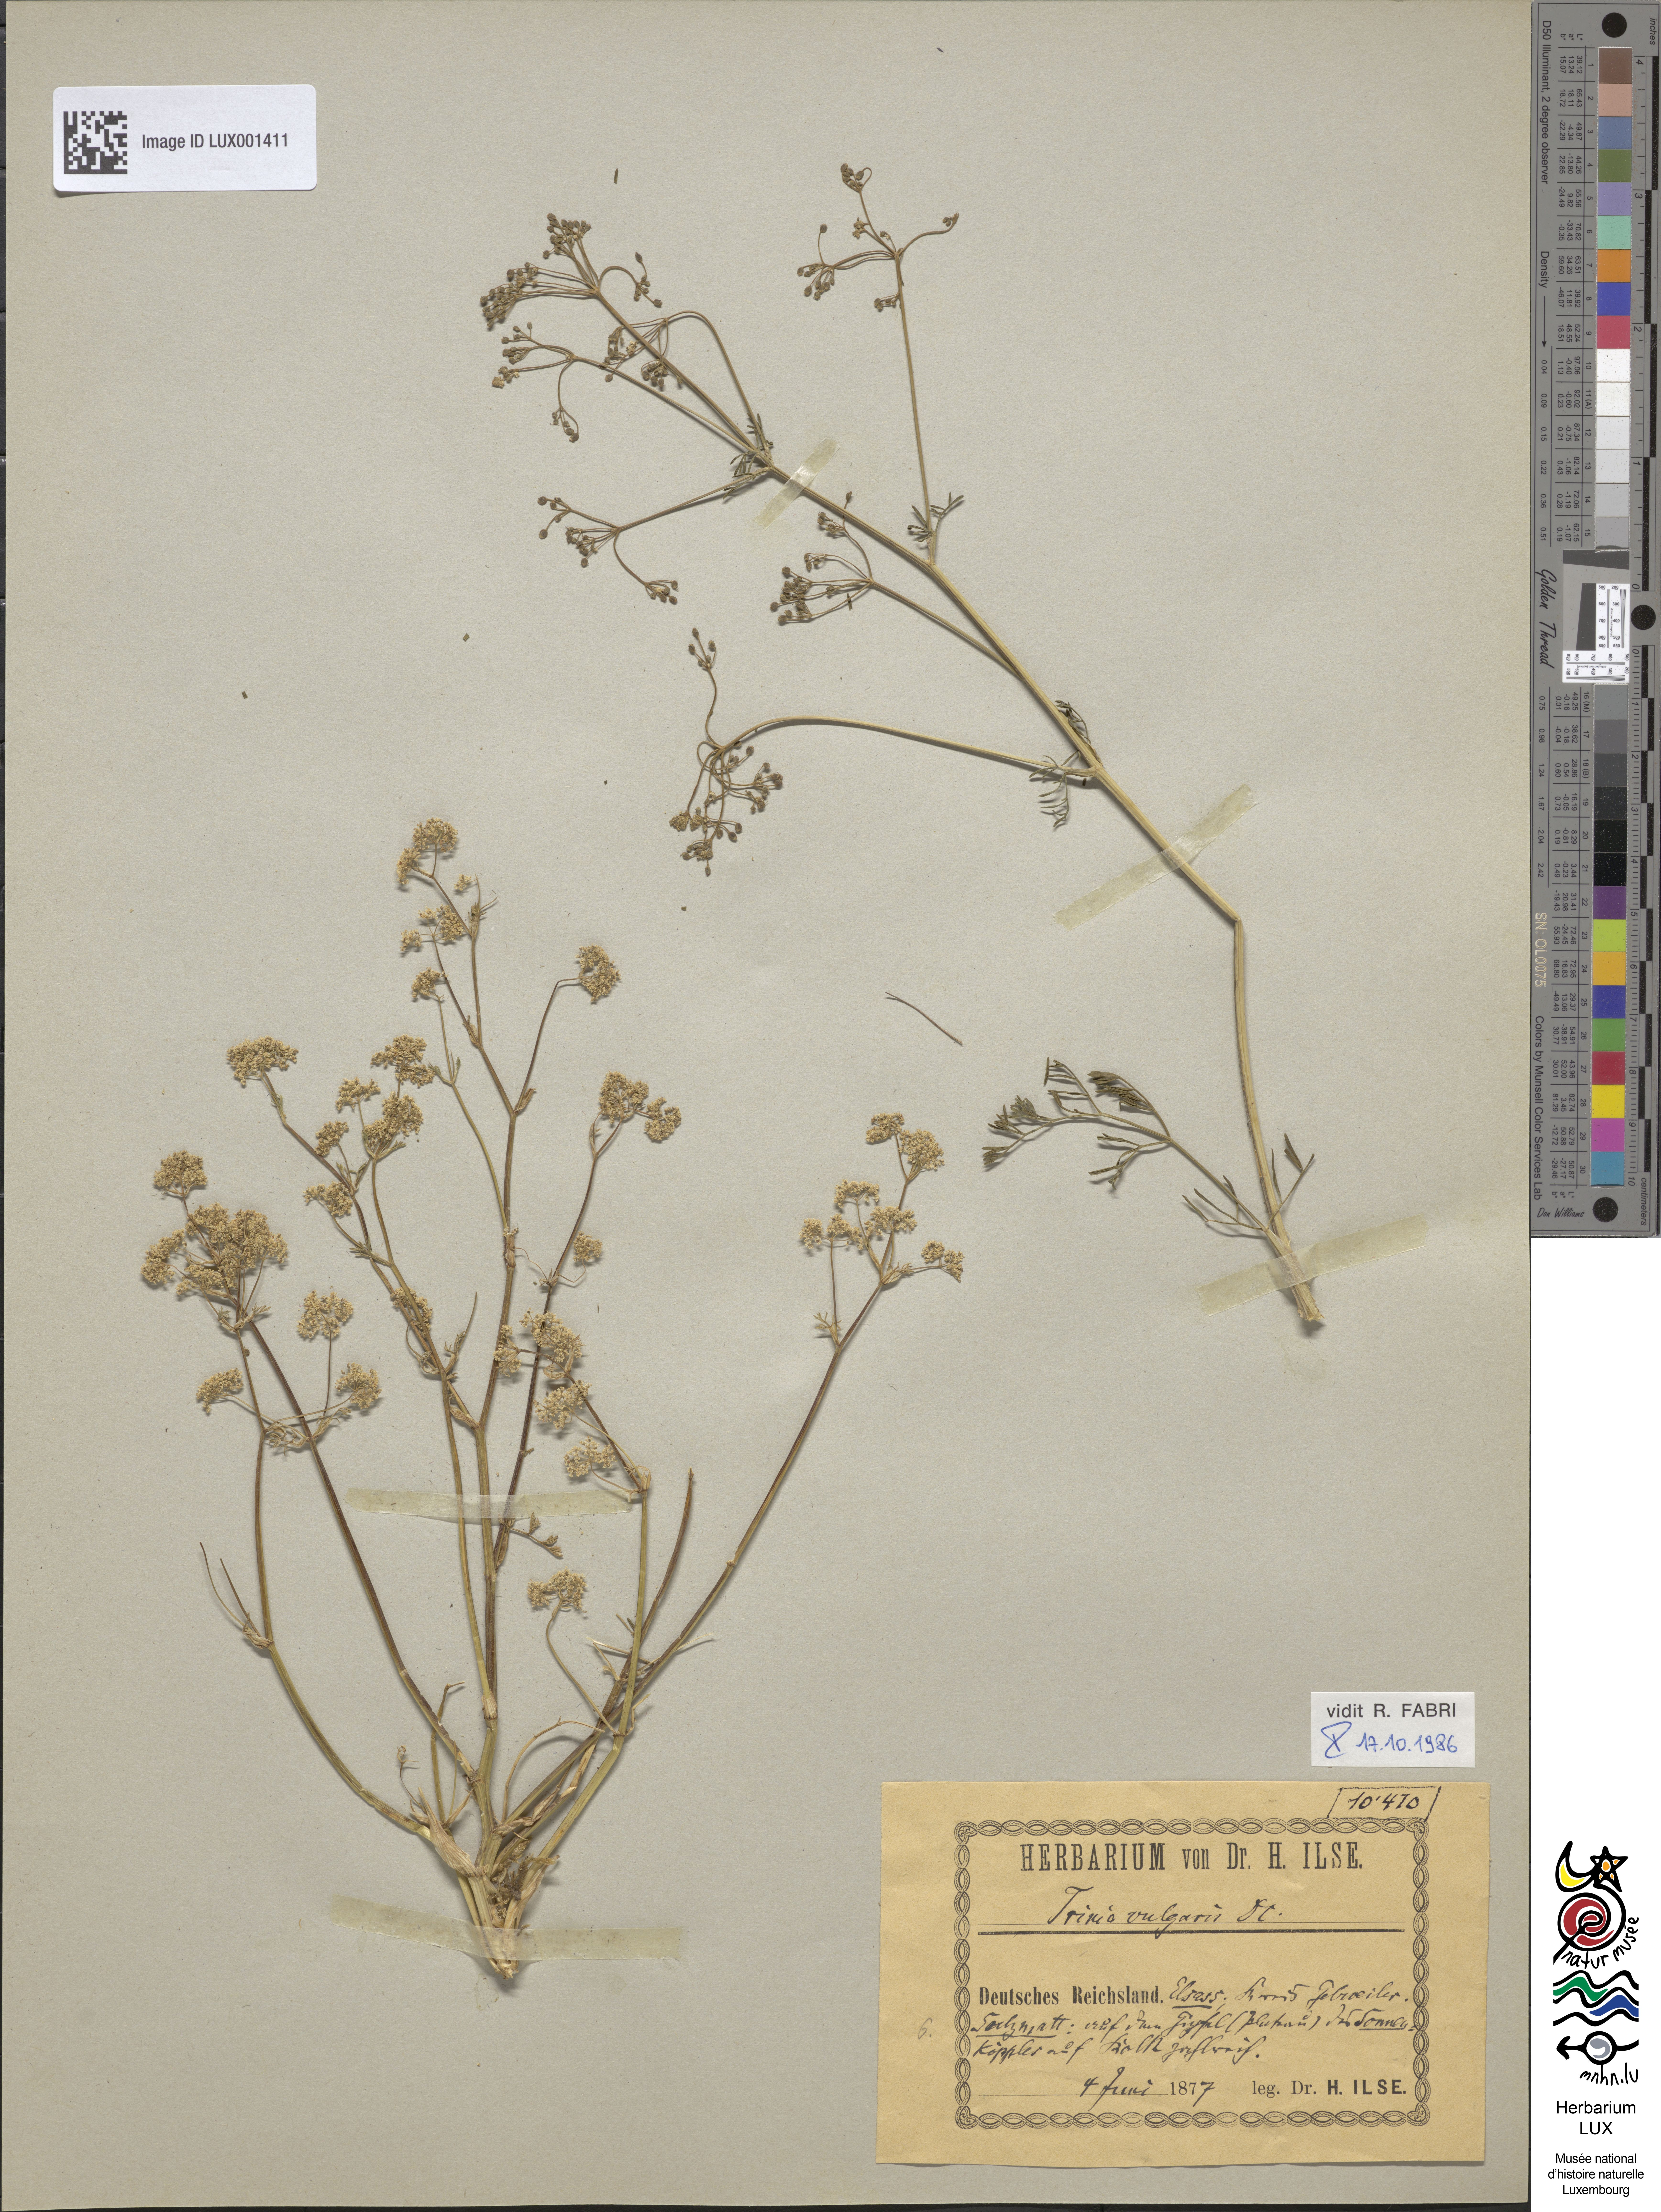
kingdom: Plantae
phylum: Tracheophyta
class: Magnoliopsida
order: Apiales
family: Apiaceae
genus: Trinia
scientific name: Trinia glauca
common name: Honewort
